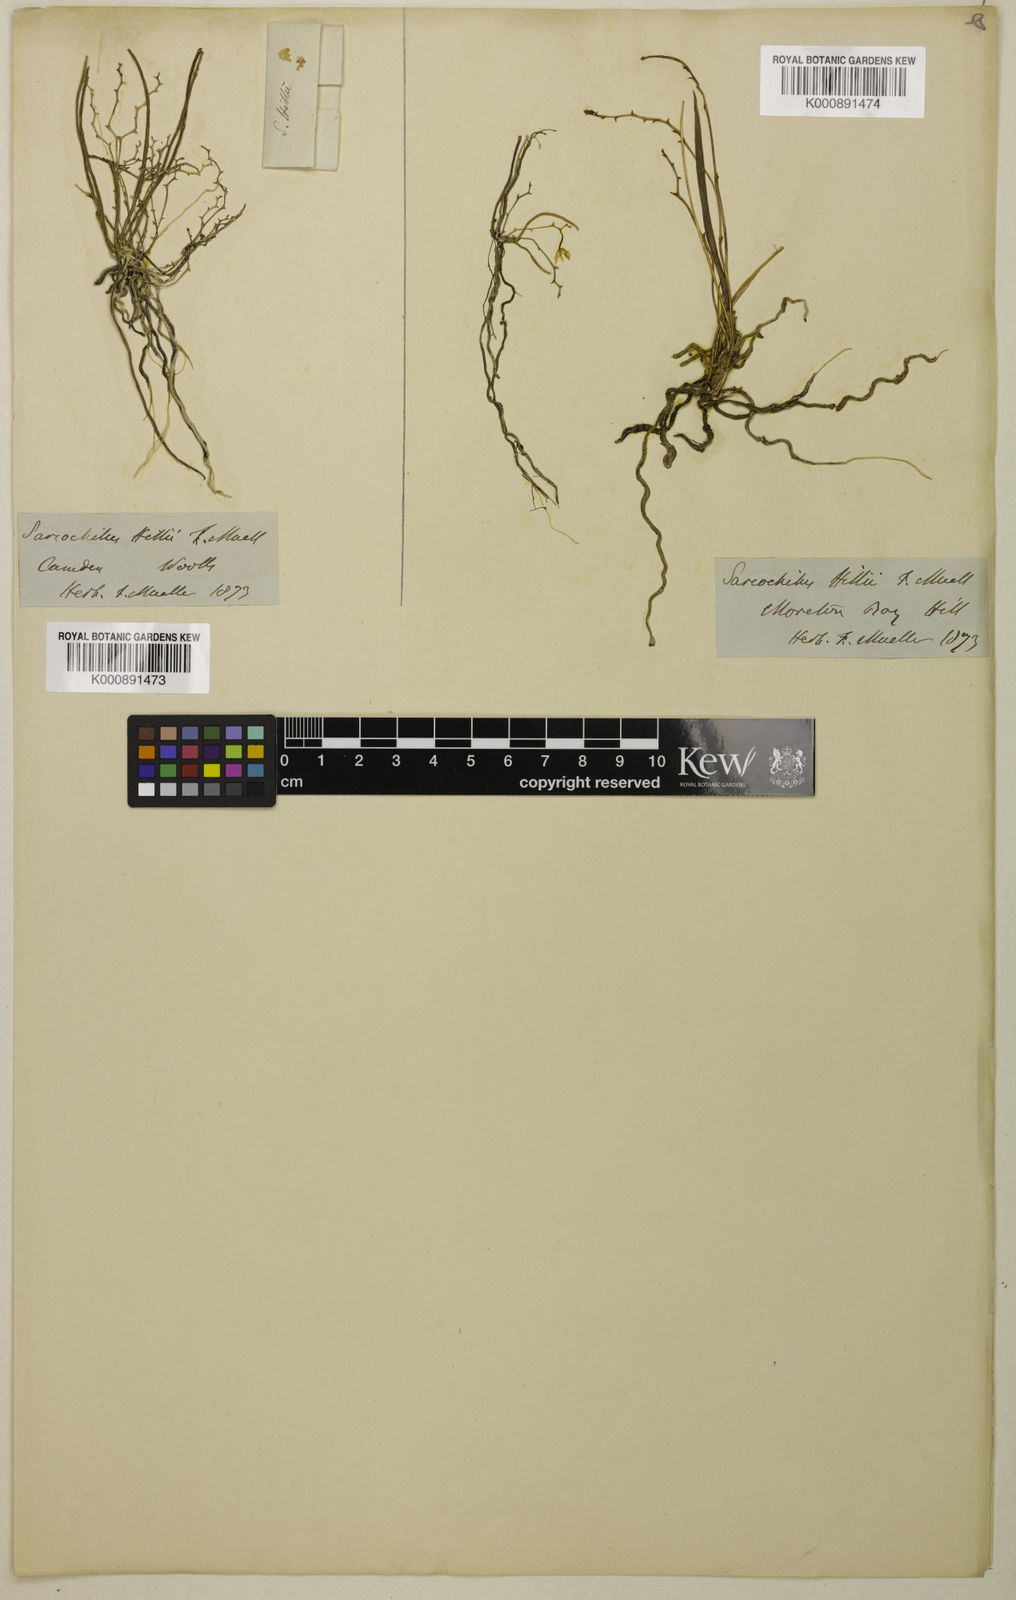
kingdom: Plantae
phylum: Tracheophyta
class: Liliopsida
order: Asparagales
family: Orchidaceae
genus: Sarcochilus
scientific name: Sarcochilus hillii
